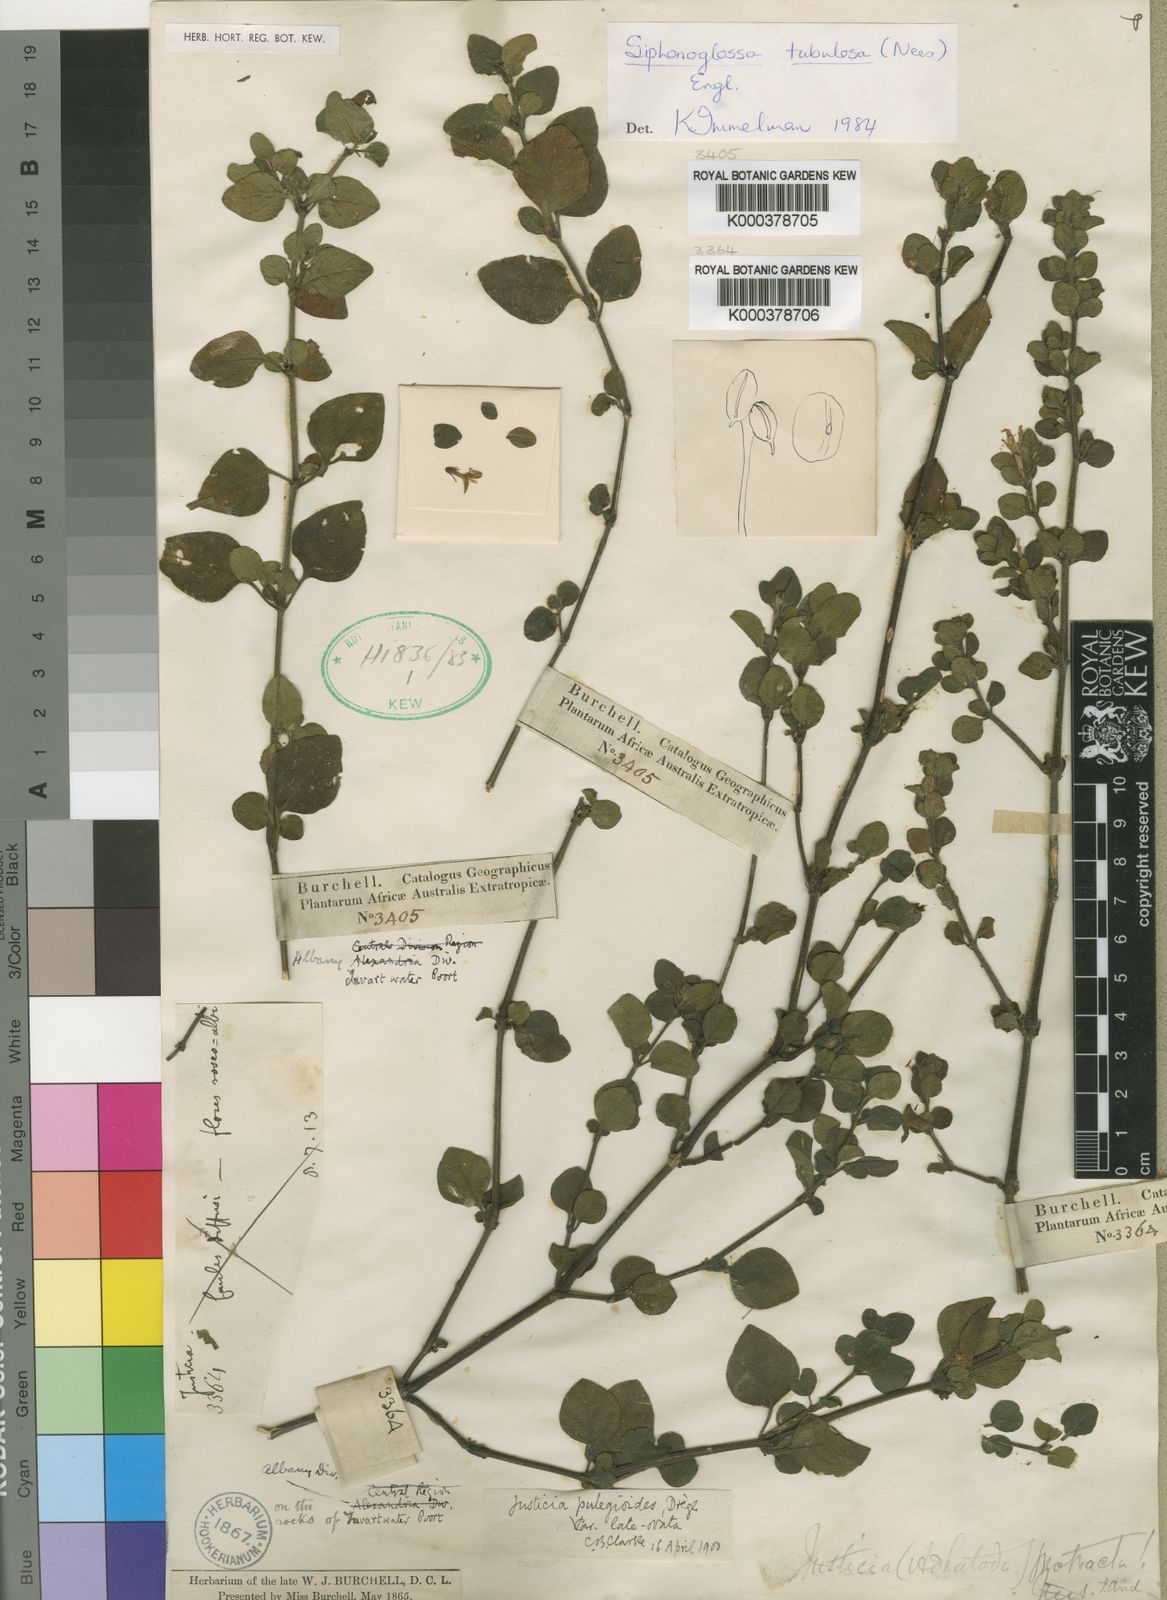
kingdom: Plantae
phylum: Tracheophyta
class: Magnoliopsida
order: Lamiales
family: Acanthaceae
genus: Pogonospermum
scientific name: Pogonospermum ciliare
